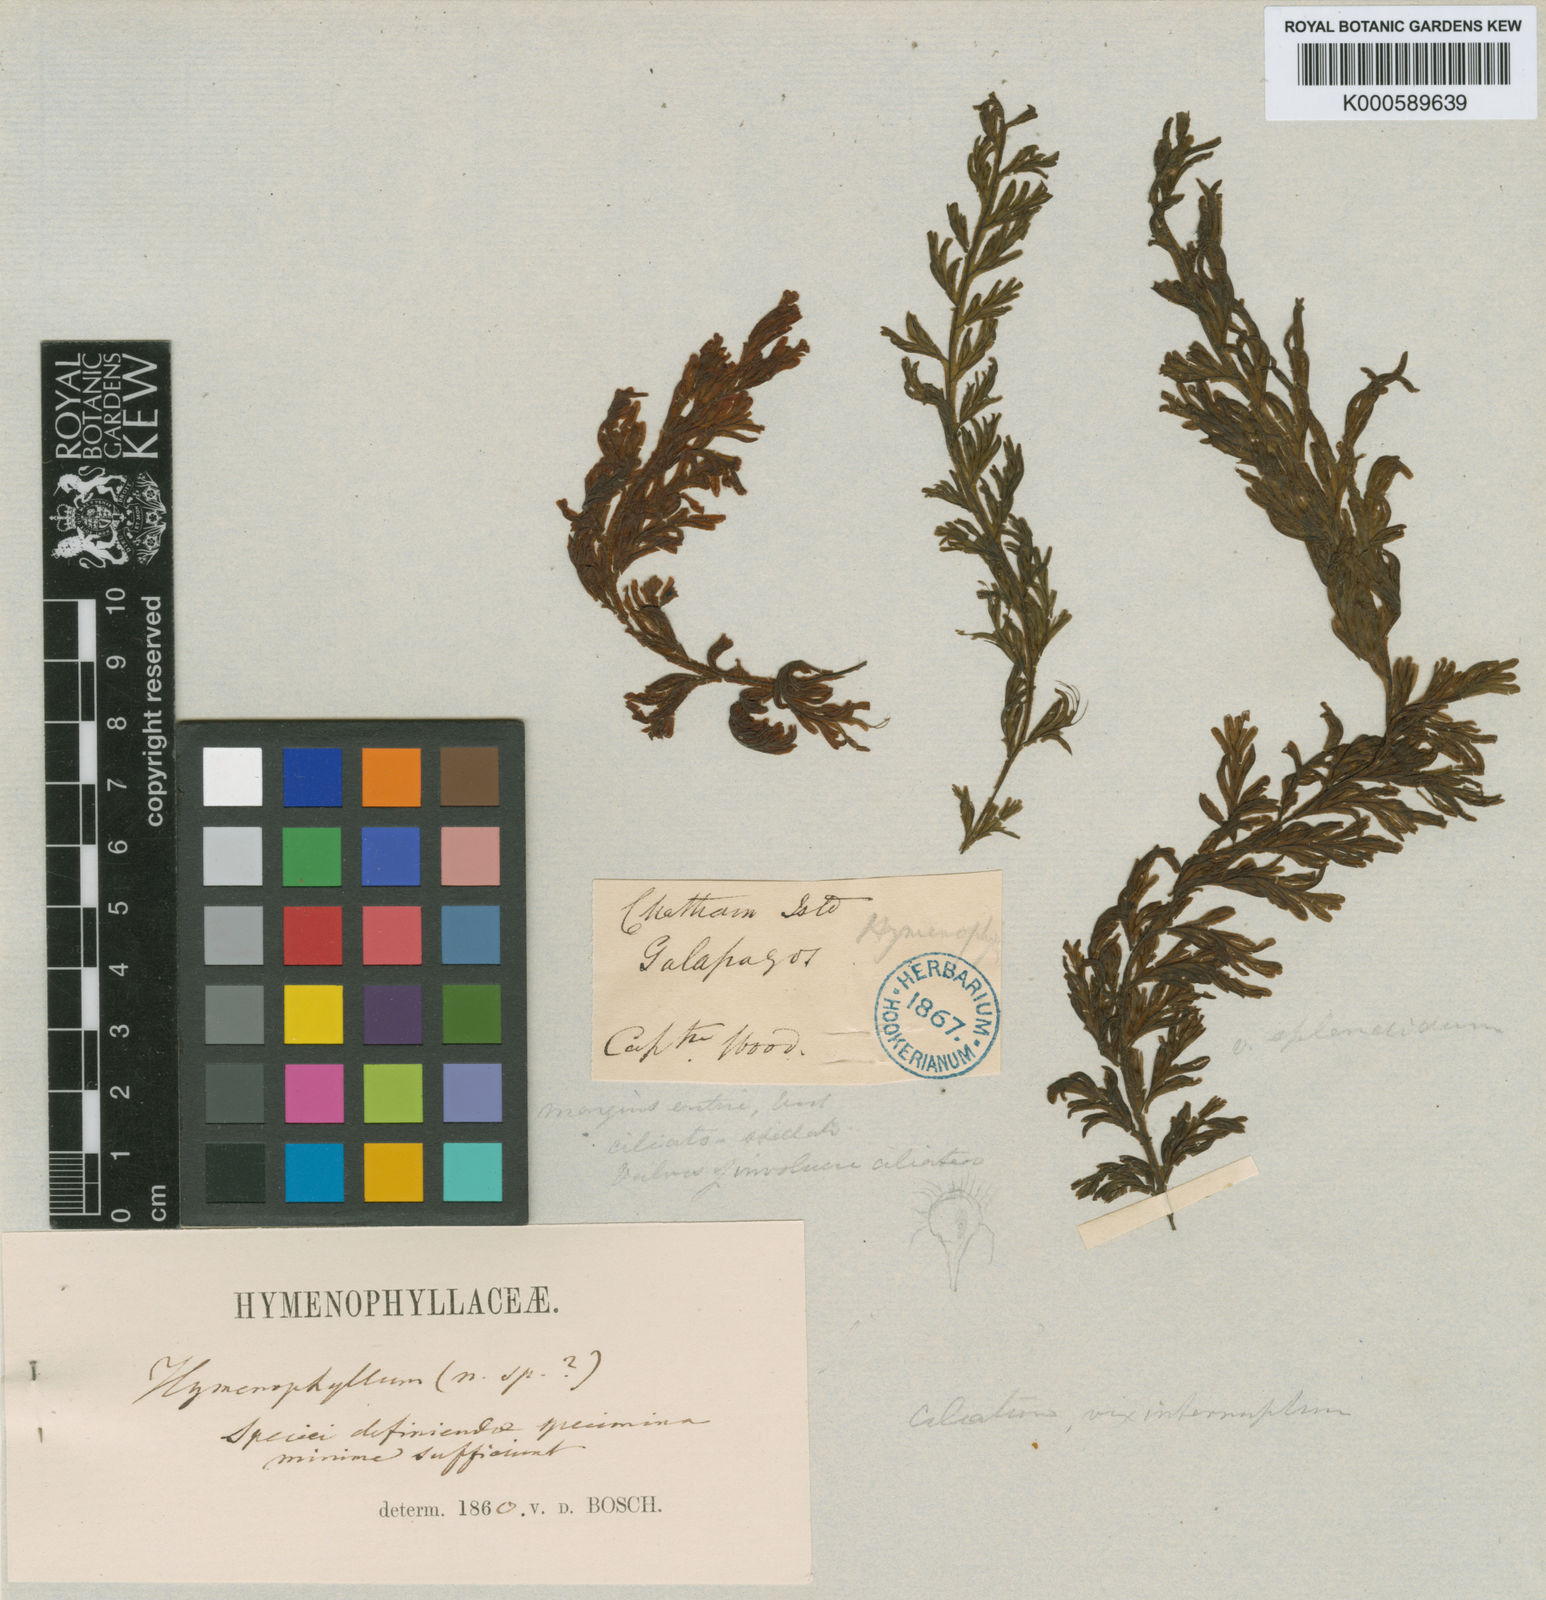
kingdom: Plantae
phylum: Tracheophyta
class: Polypodiopsida
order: Hymenophyllales
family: Hymenophyllaceae
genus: Hymenophyllum
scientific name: Hymenophyllum hirsutum
